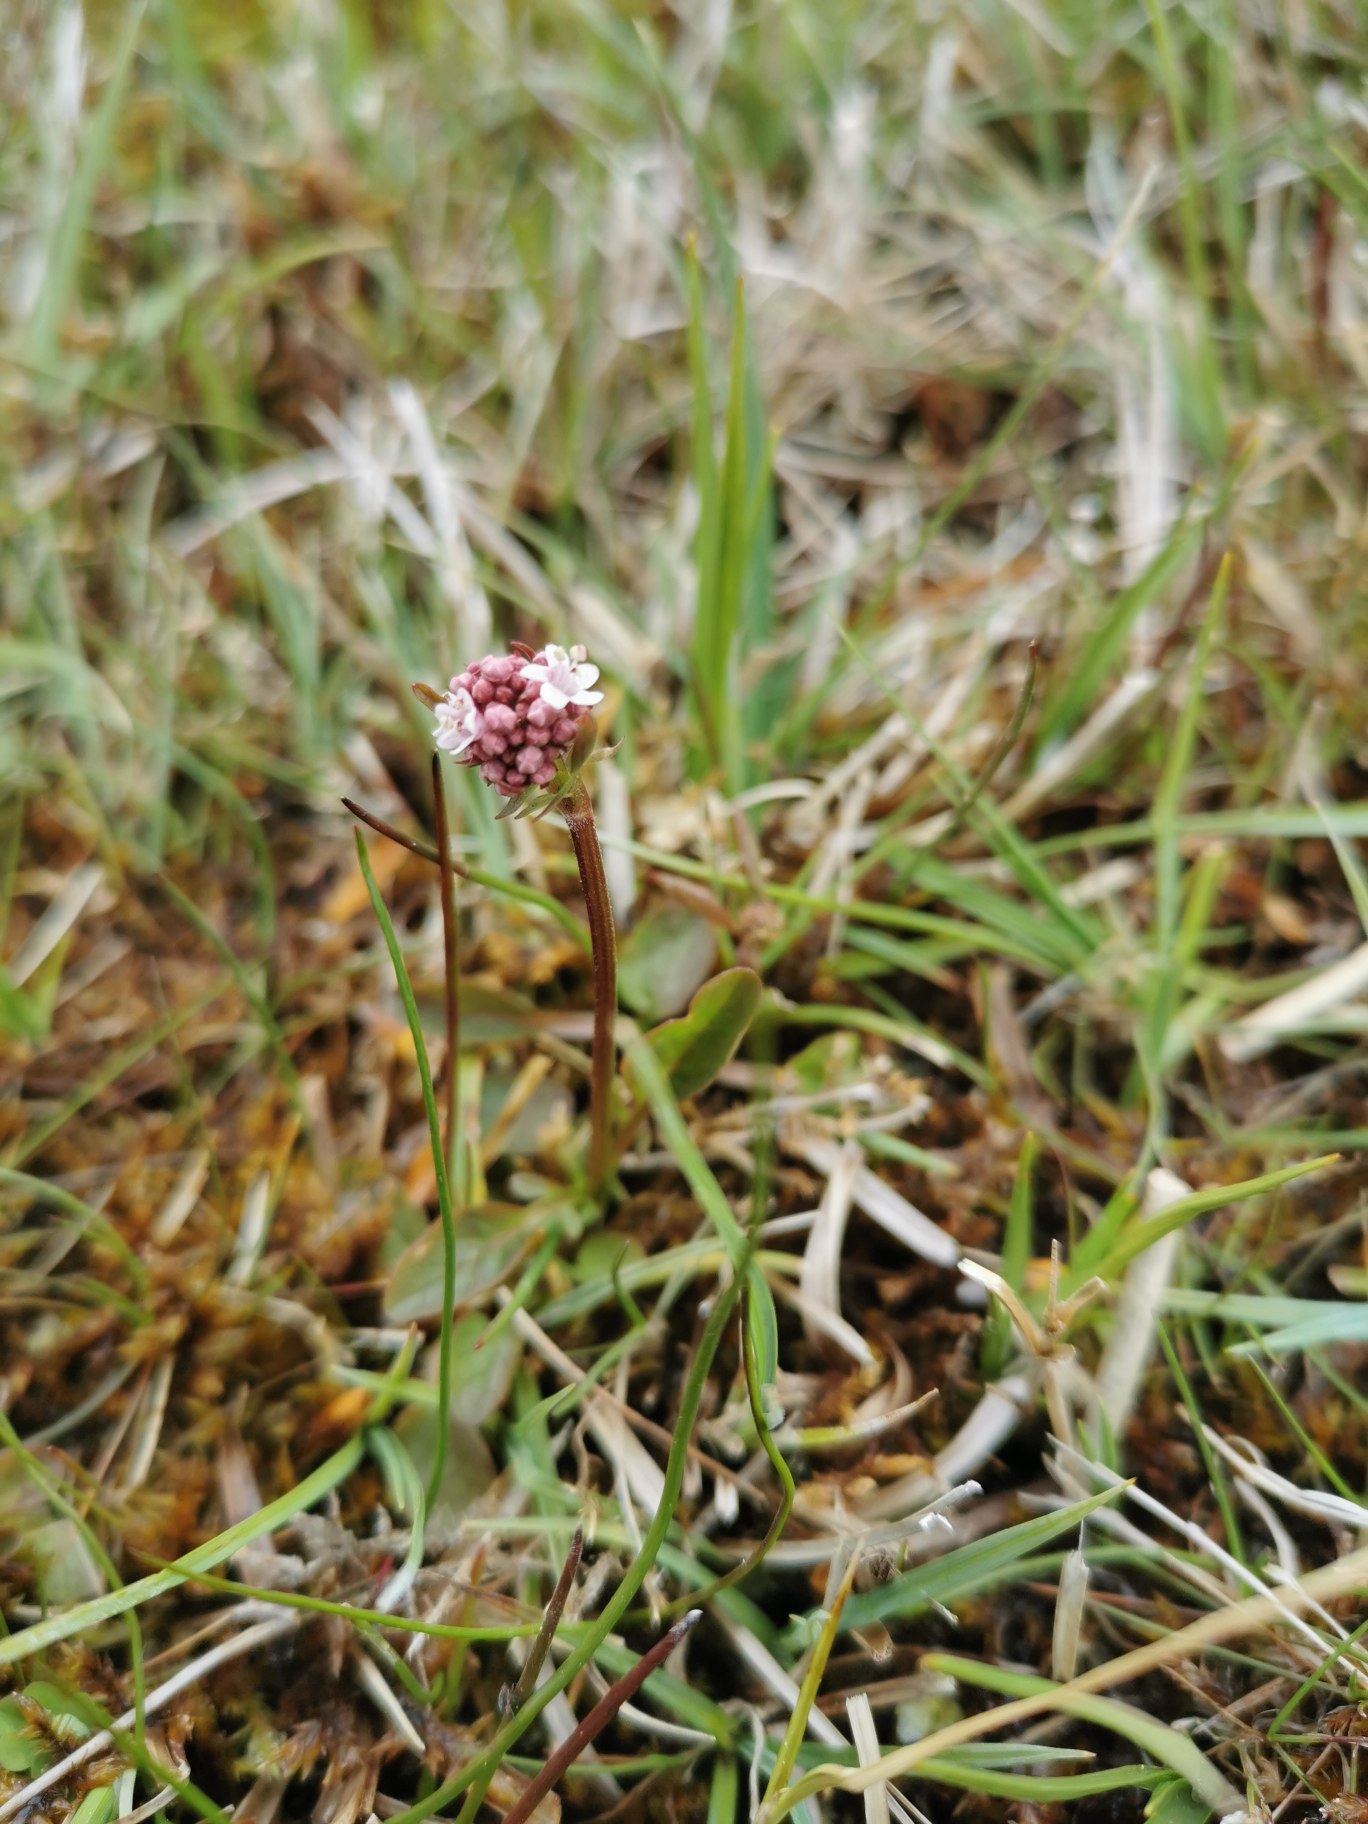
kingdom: Plantae
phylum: Tracheophyta
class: Magnoliopsida
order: Dipsacales
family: Caprifoliaceae
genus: Valeriana
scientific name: Valeriana dioica
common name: Tvebo baldrian
